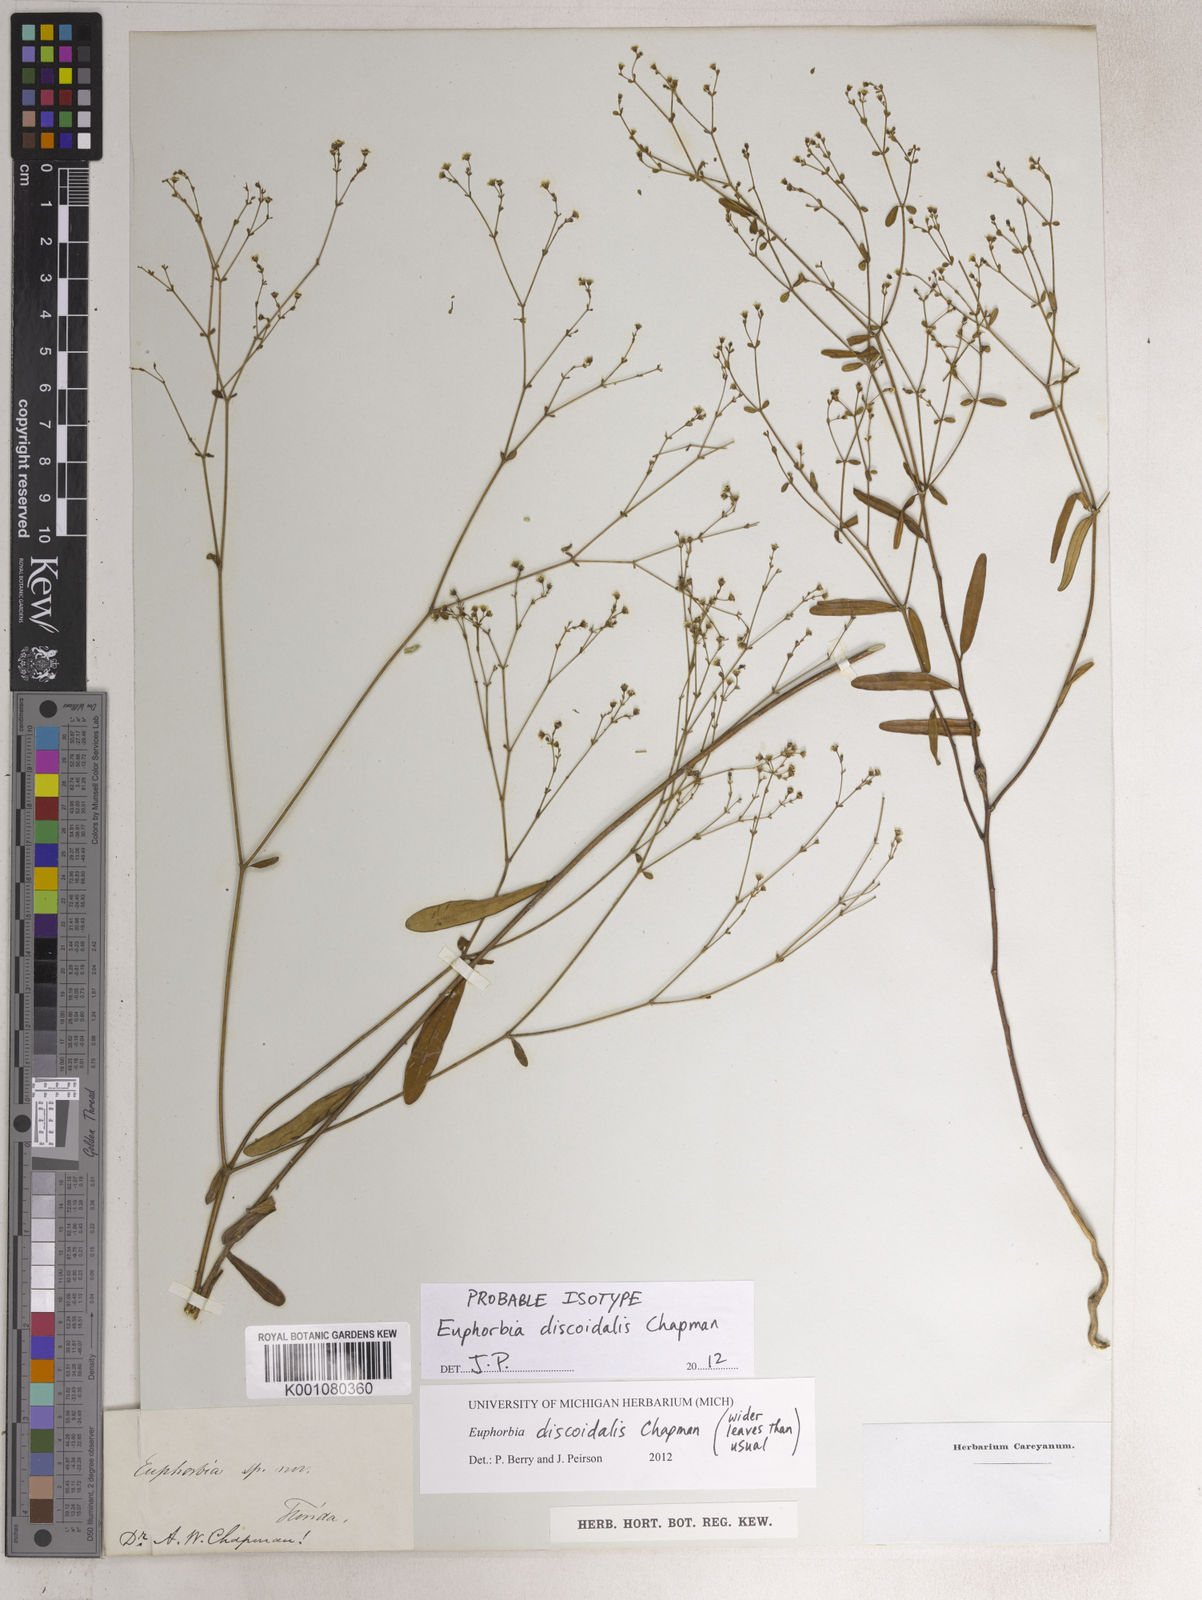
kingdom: Plantae
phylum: Tracheophyta
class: Magnoliopsida
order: Malpighiales
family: Euphorbiaceae
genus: Euphorbia
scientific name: Euphorbia discoidalis
